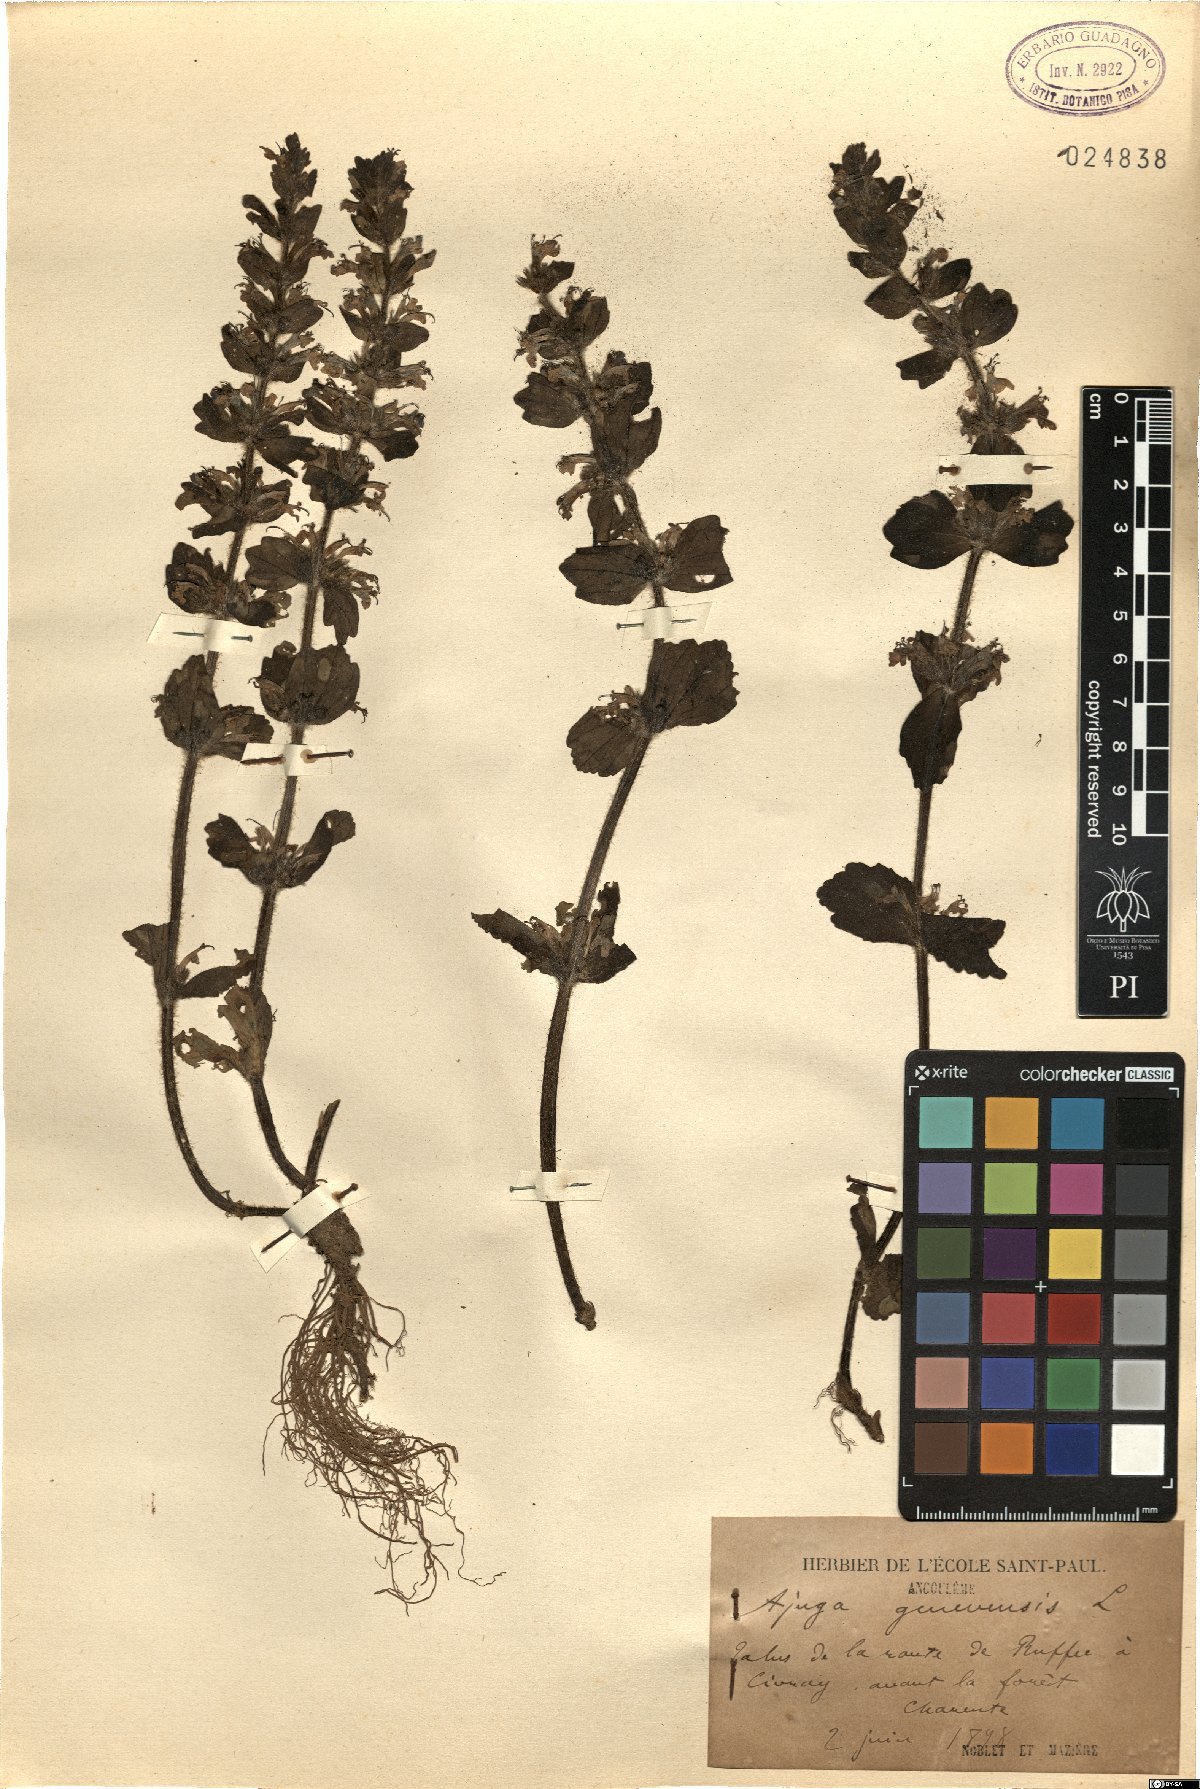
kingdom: Plantae
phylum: Tracheophyta
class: Magnoliopsida
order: Lamiales
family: Lamiaceae
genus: Ajuga
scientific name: Ajuga genevensis
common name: Blue bugle
